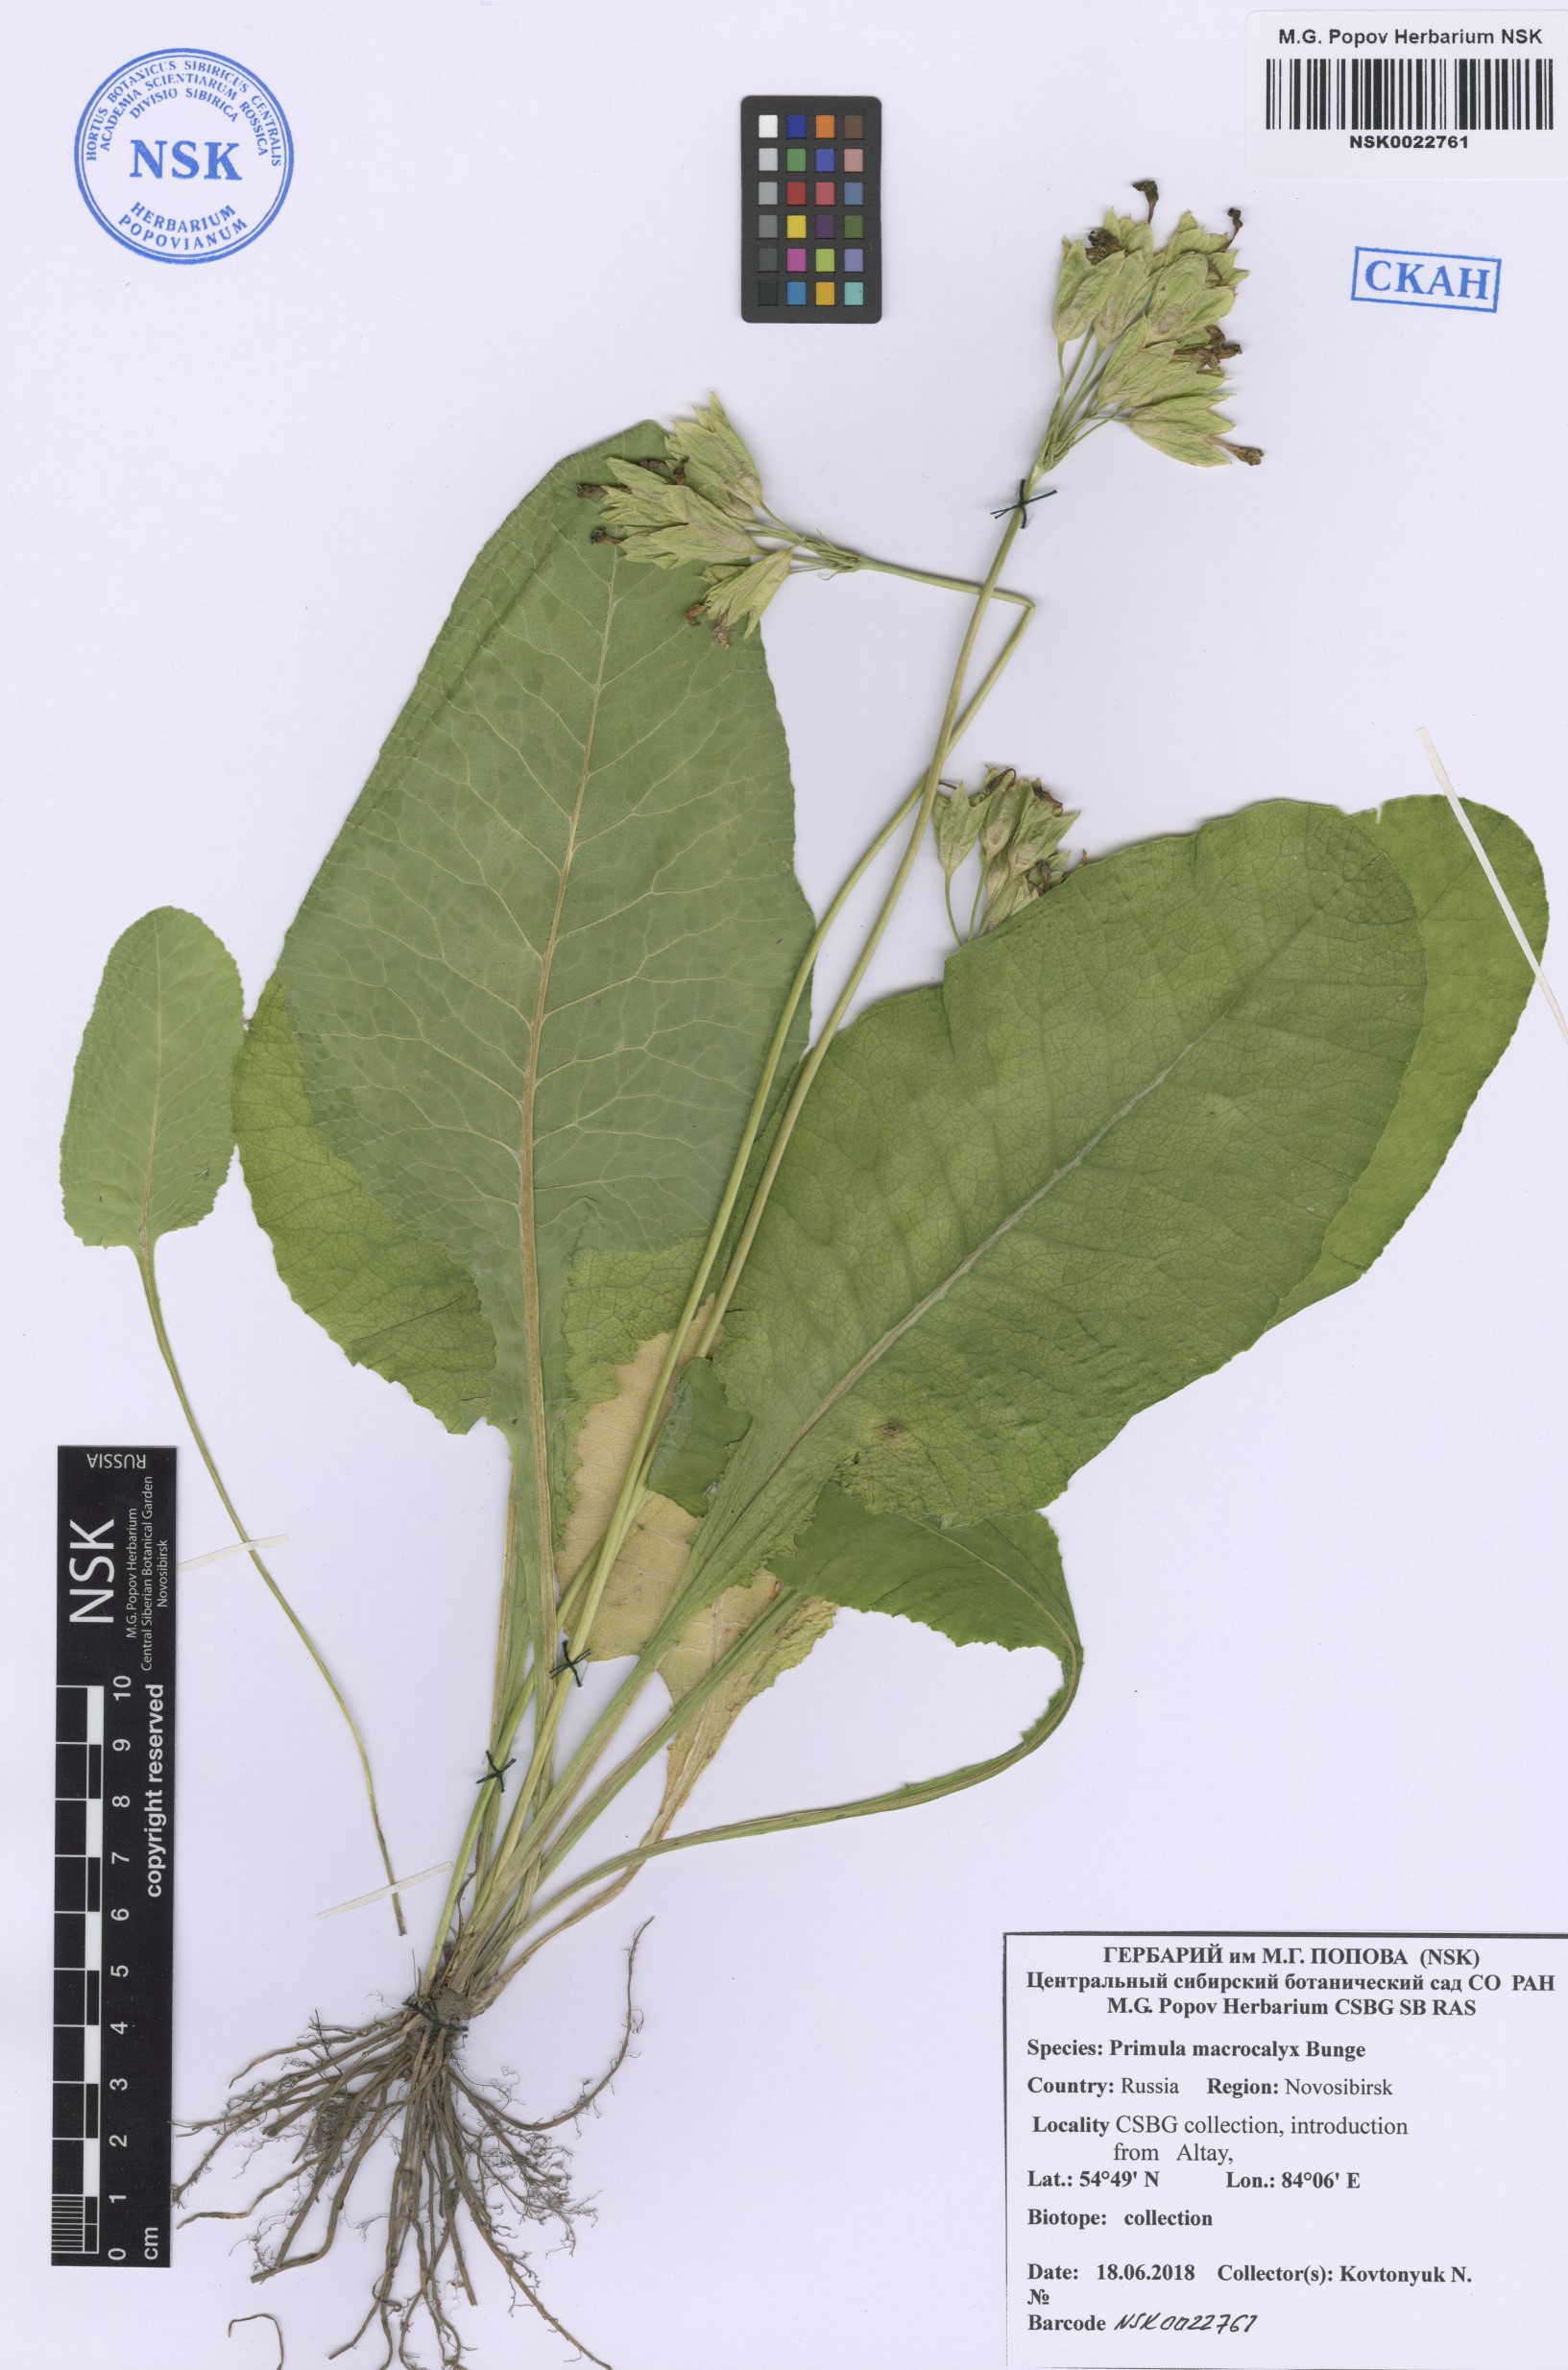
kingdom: Plantae
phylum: Tracheophyta
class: Magnoliopsida
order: Ericales
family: Primulaceae
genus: Primula
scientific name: Primula veris
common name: Cowslip
